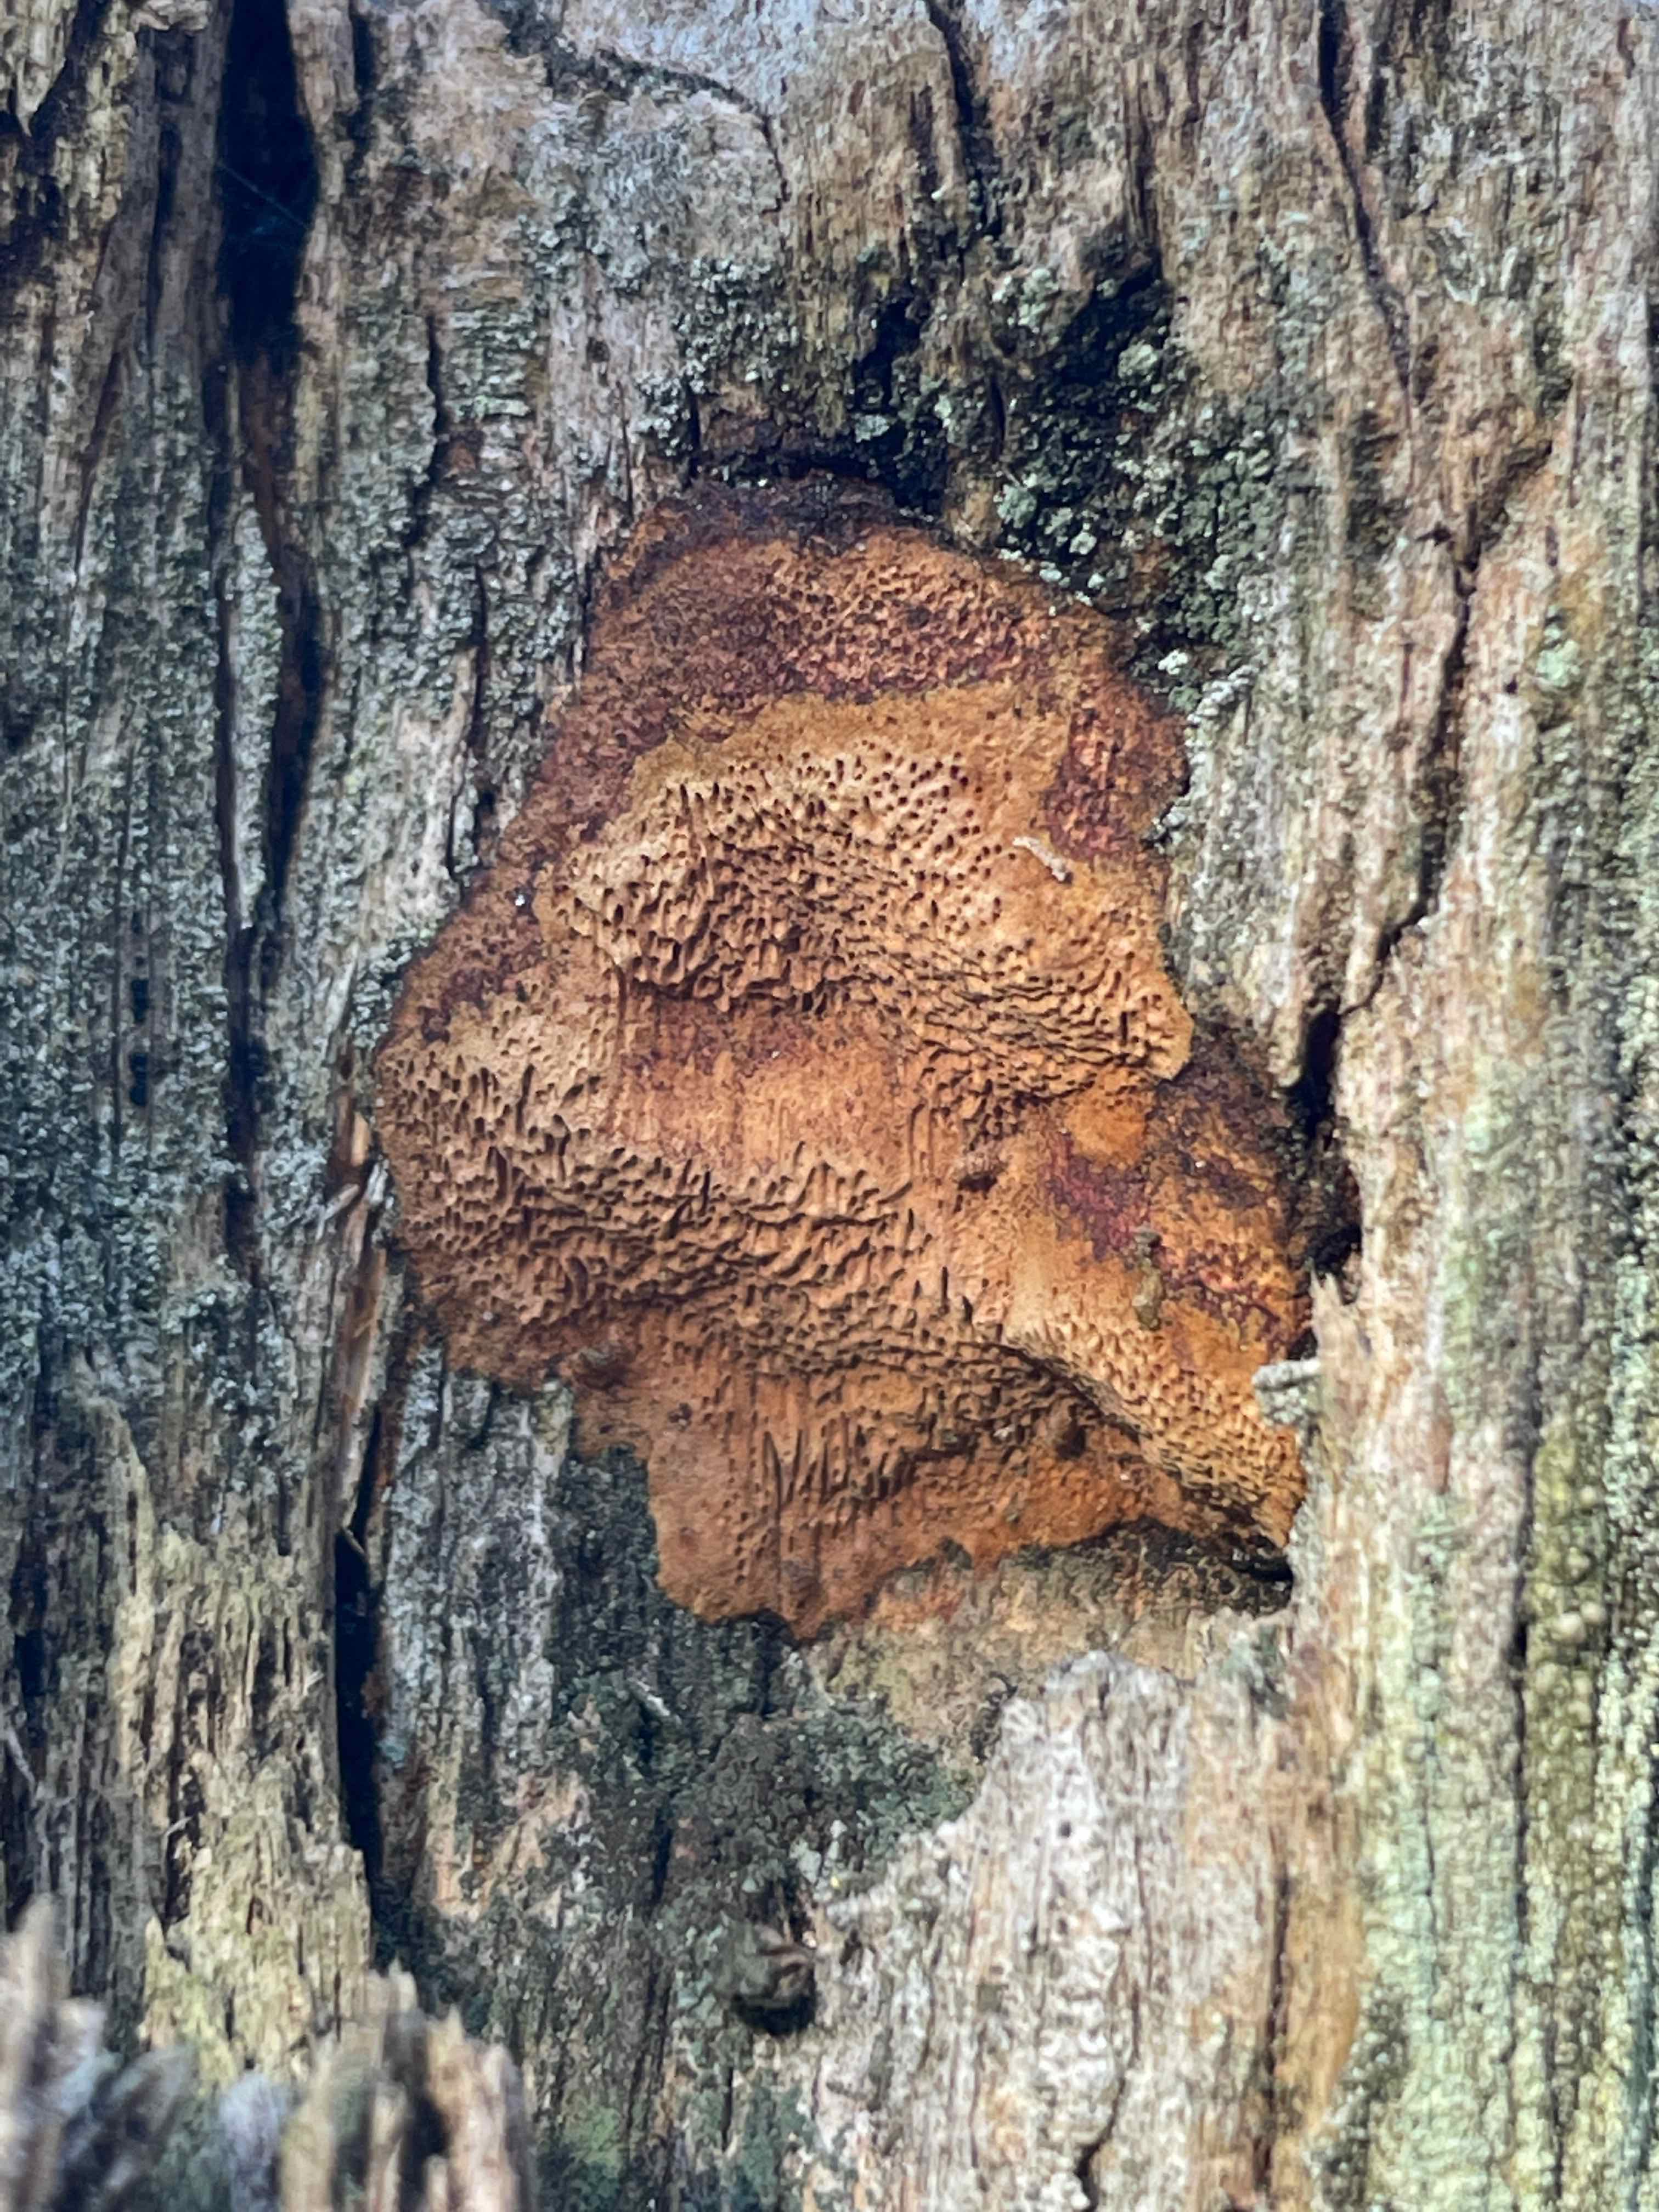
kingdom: Fungi
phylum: Basidiomycota
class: Agaricomycetes
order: Hymenochaetales
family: Hymenochaetaceae
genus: Fuscoporia
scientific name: Fuscoporia ferrea
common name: skorpe-ildporesvamp
